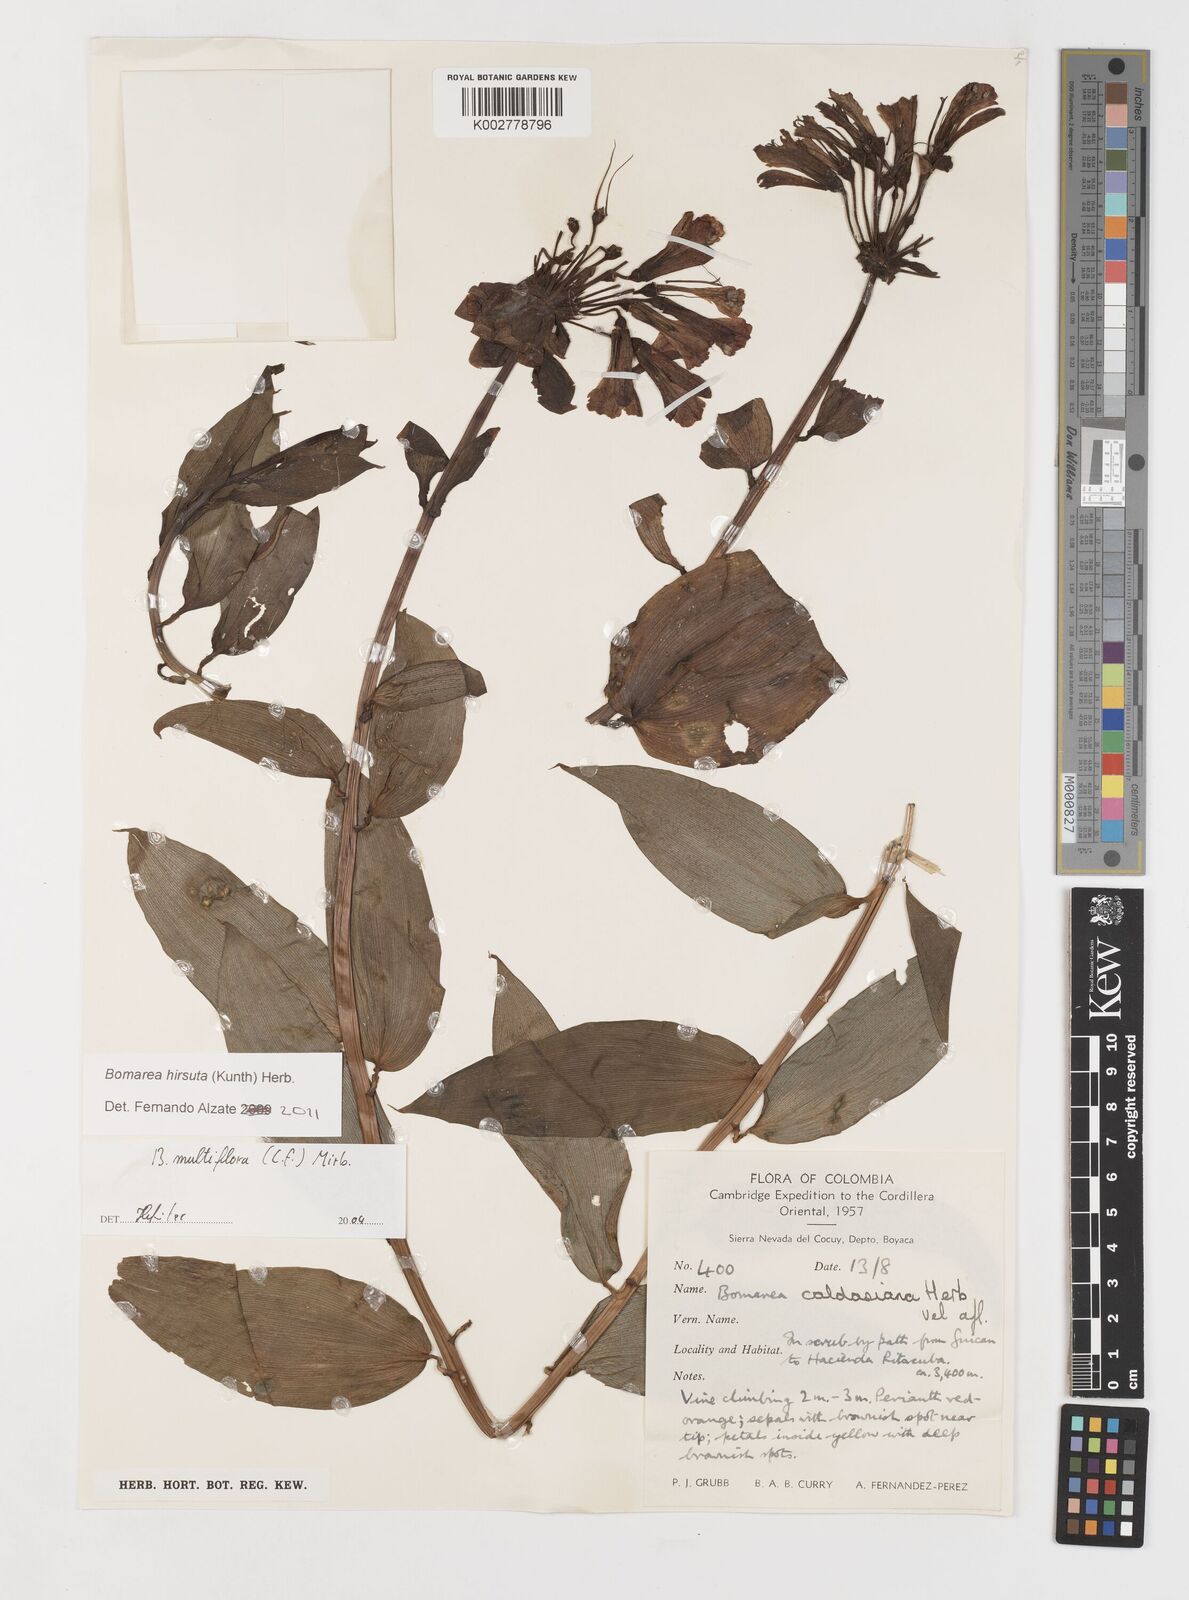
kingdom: Plantae
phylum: Tracheophyta
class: Liliopsida
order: Liliales
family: Alstroemeriaceae
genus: Bomarea
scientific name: Bomarea hirsuta
